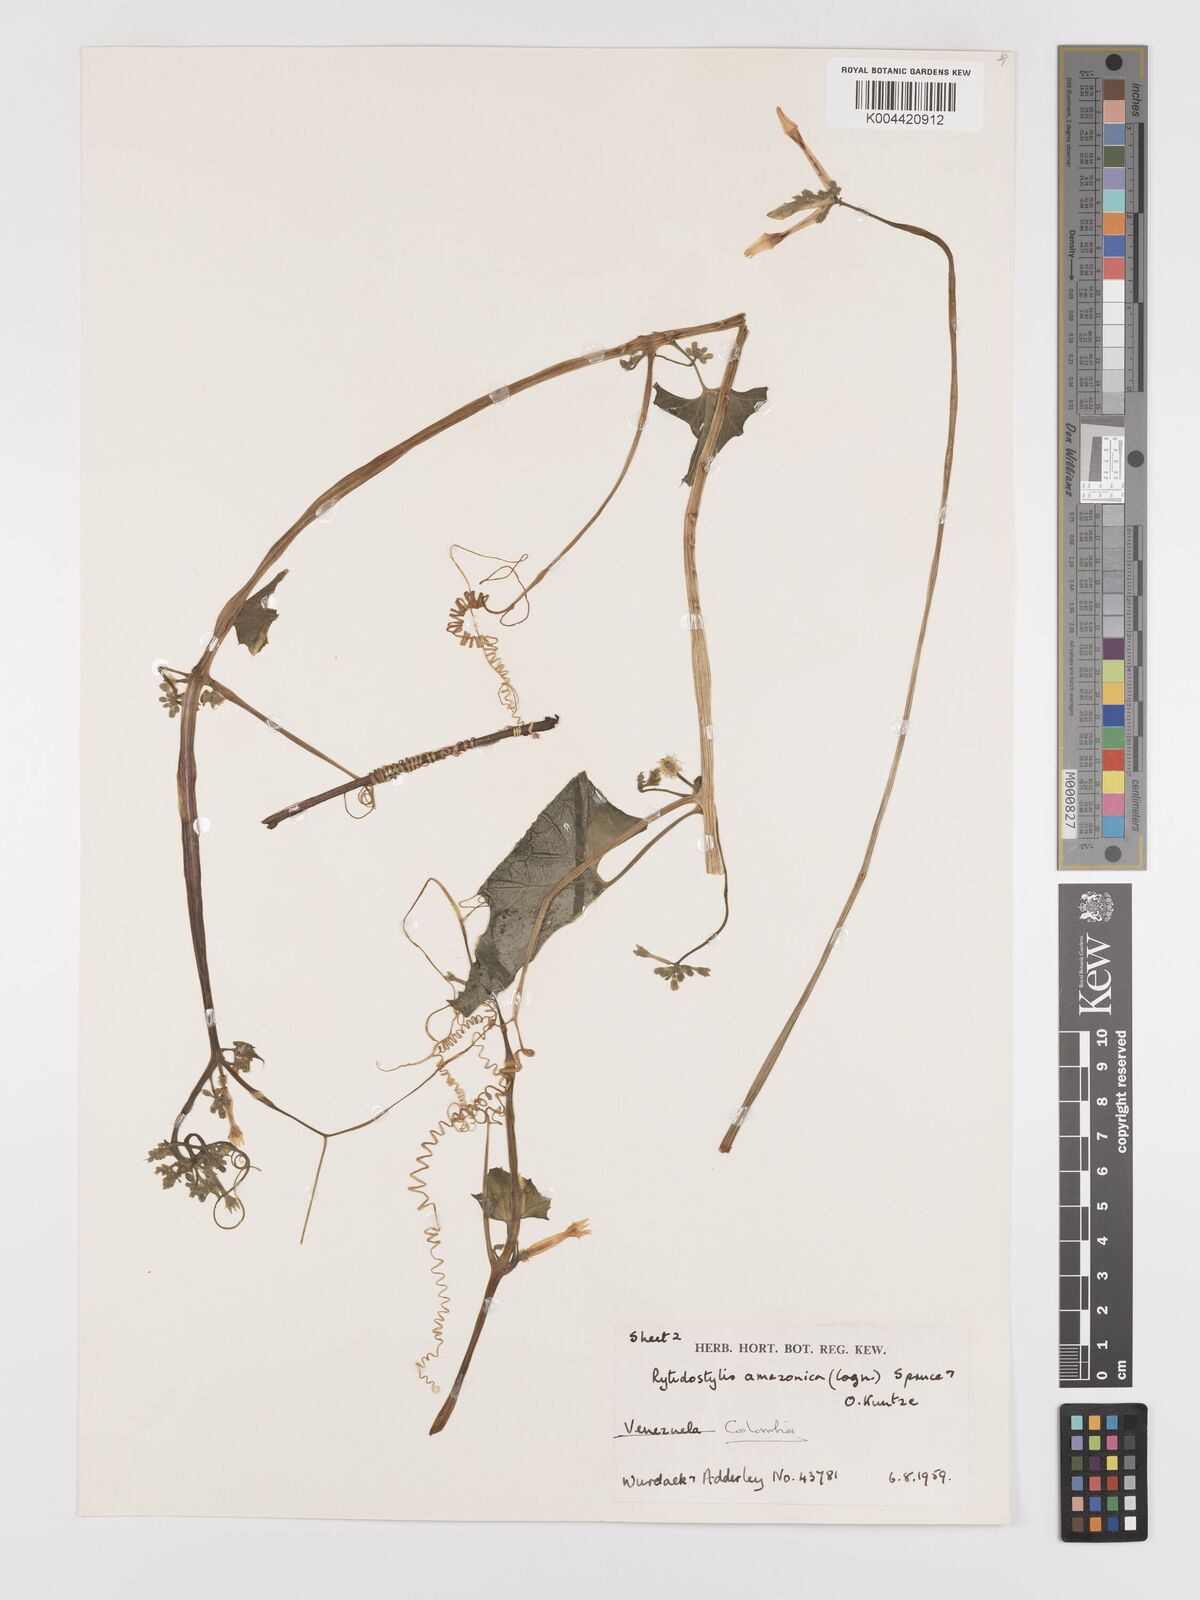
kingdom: Plantae
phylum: Tracheophyta
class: Magnoliopsida
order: Cucurbitales
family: Cucurbitaceae
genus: Cyclanthera
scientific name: Cyclanthera carthagenensis
